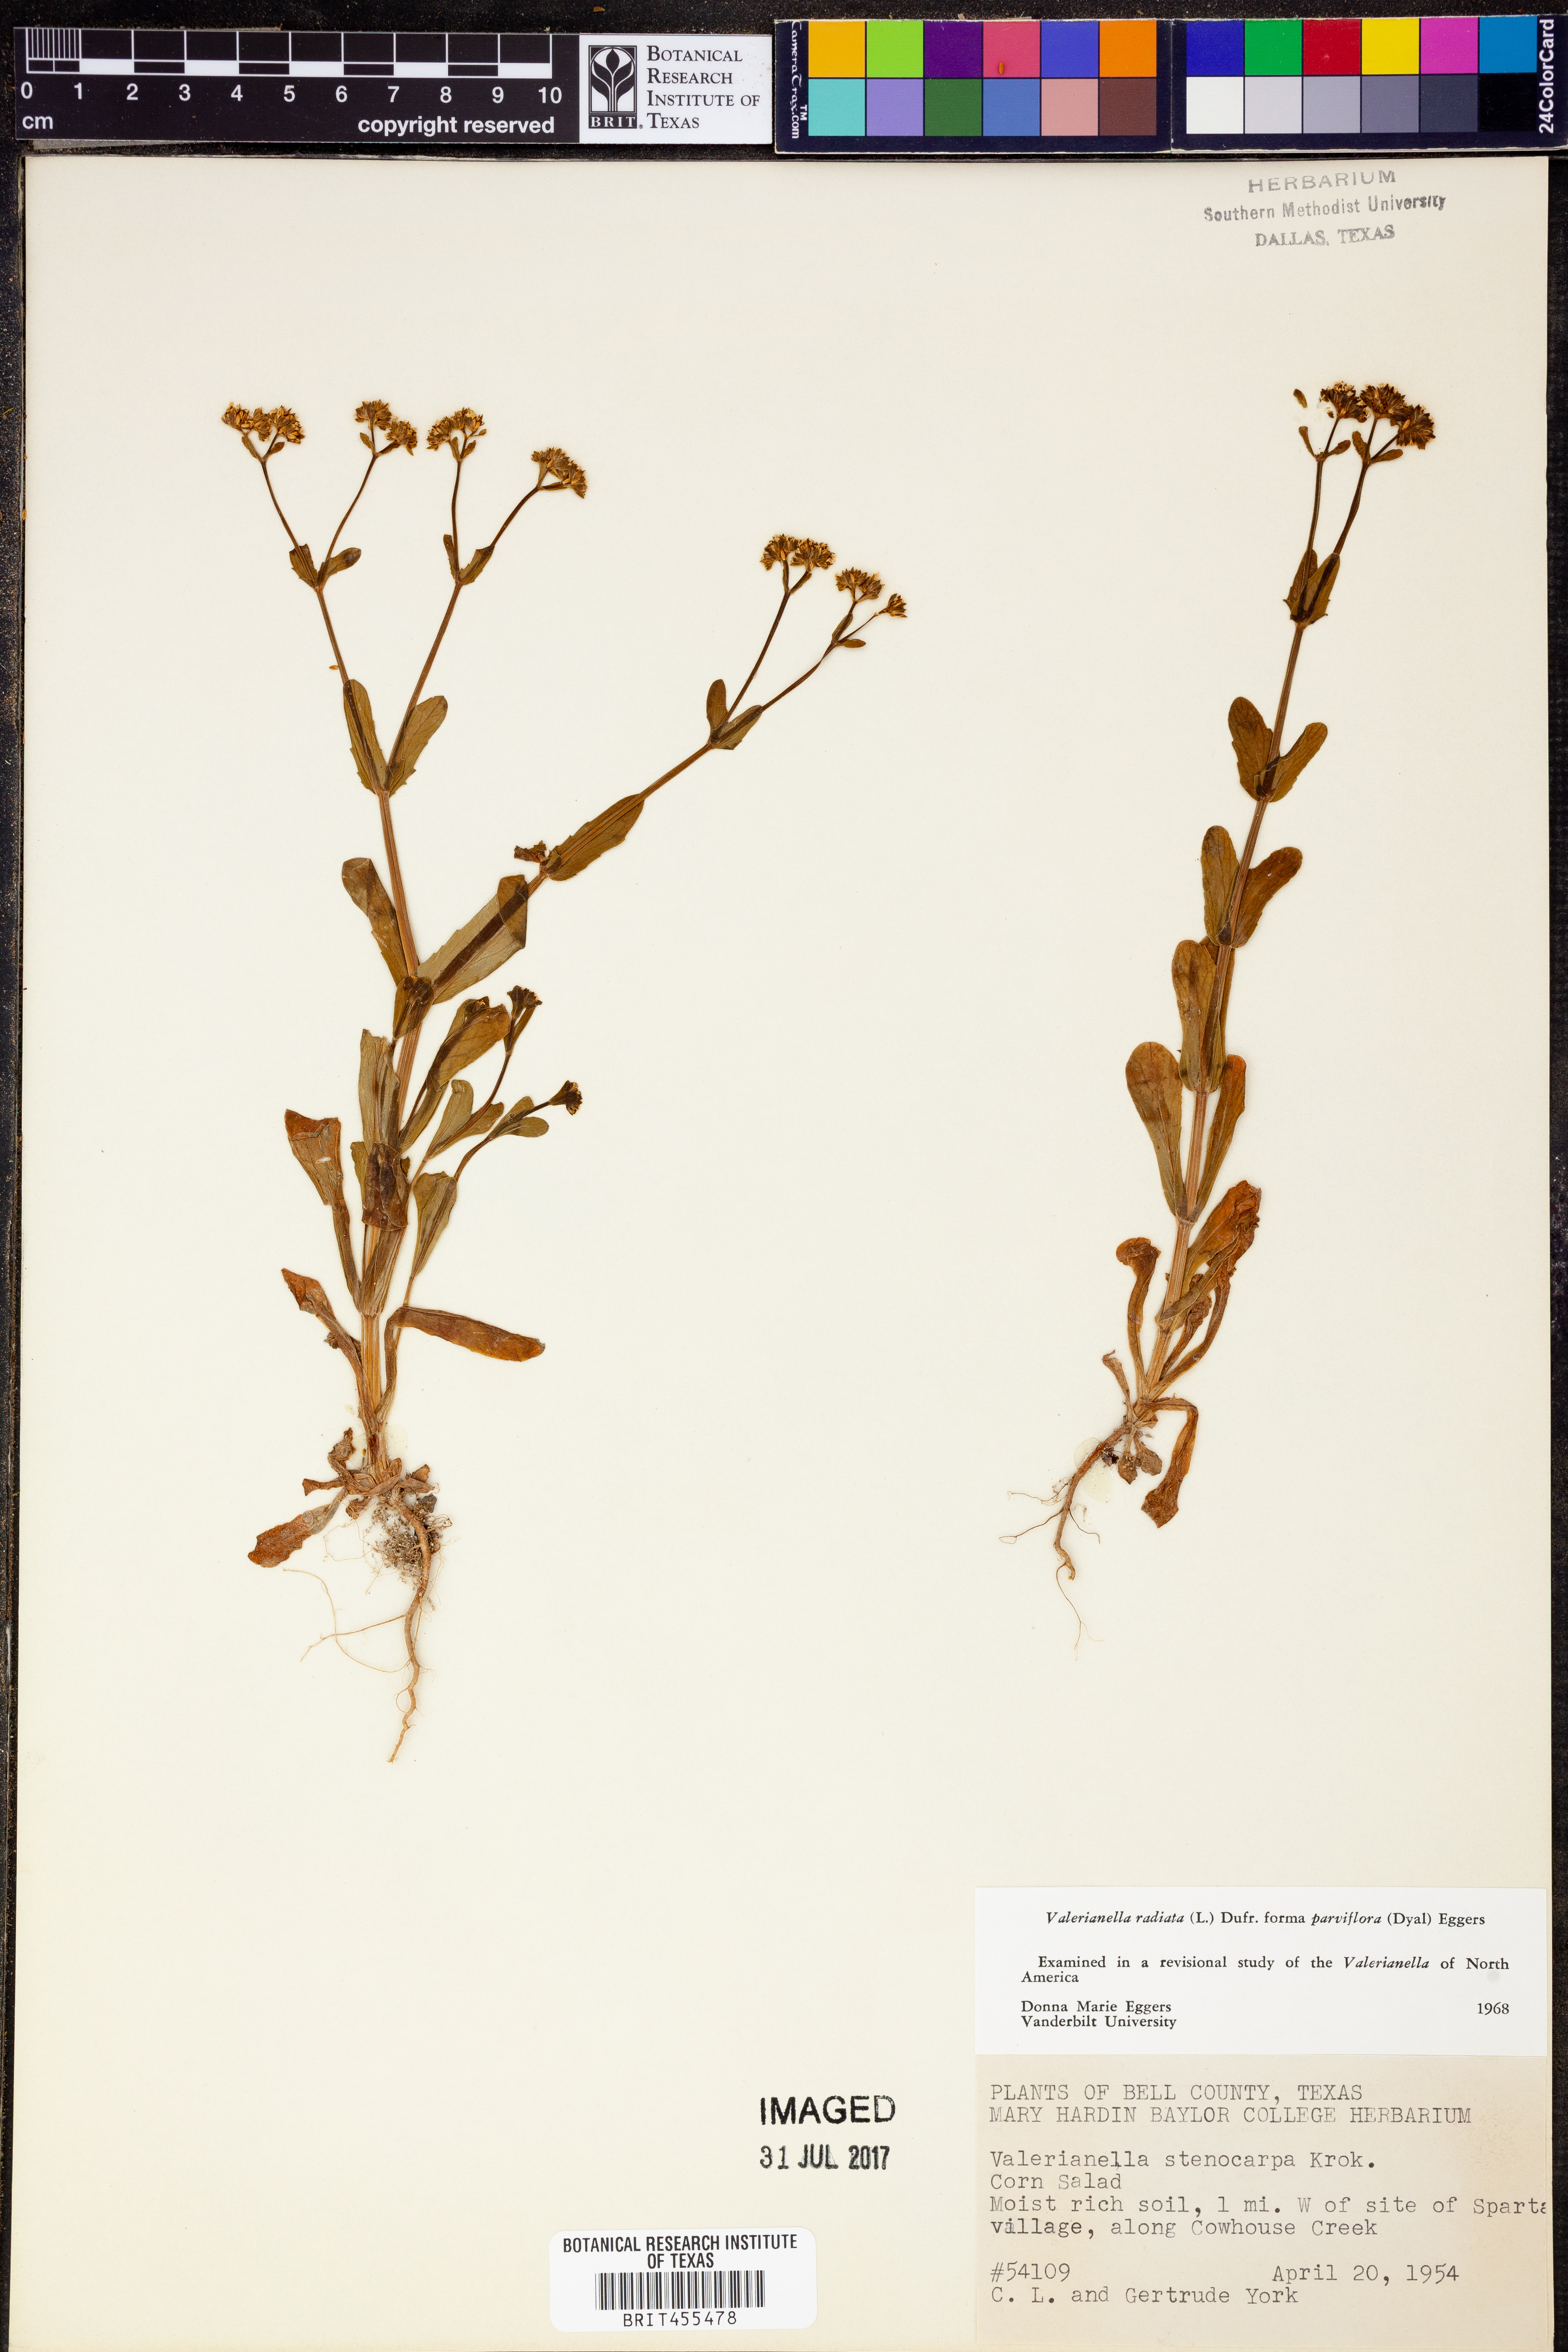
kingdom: Plantae
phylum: Tracheophyta
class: Magnoliopsida
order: Dipsacales
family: Caprifoliaceae
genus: Valerianella
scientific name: Valerianella radiata
